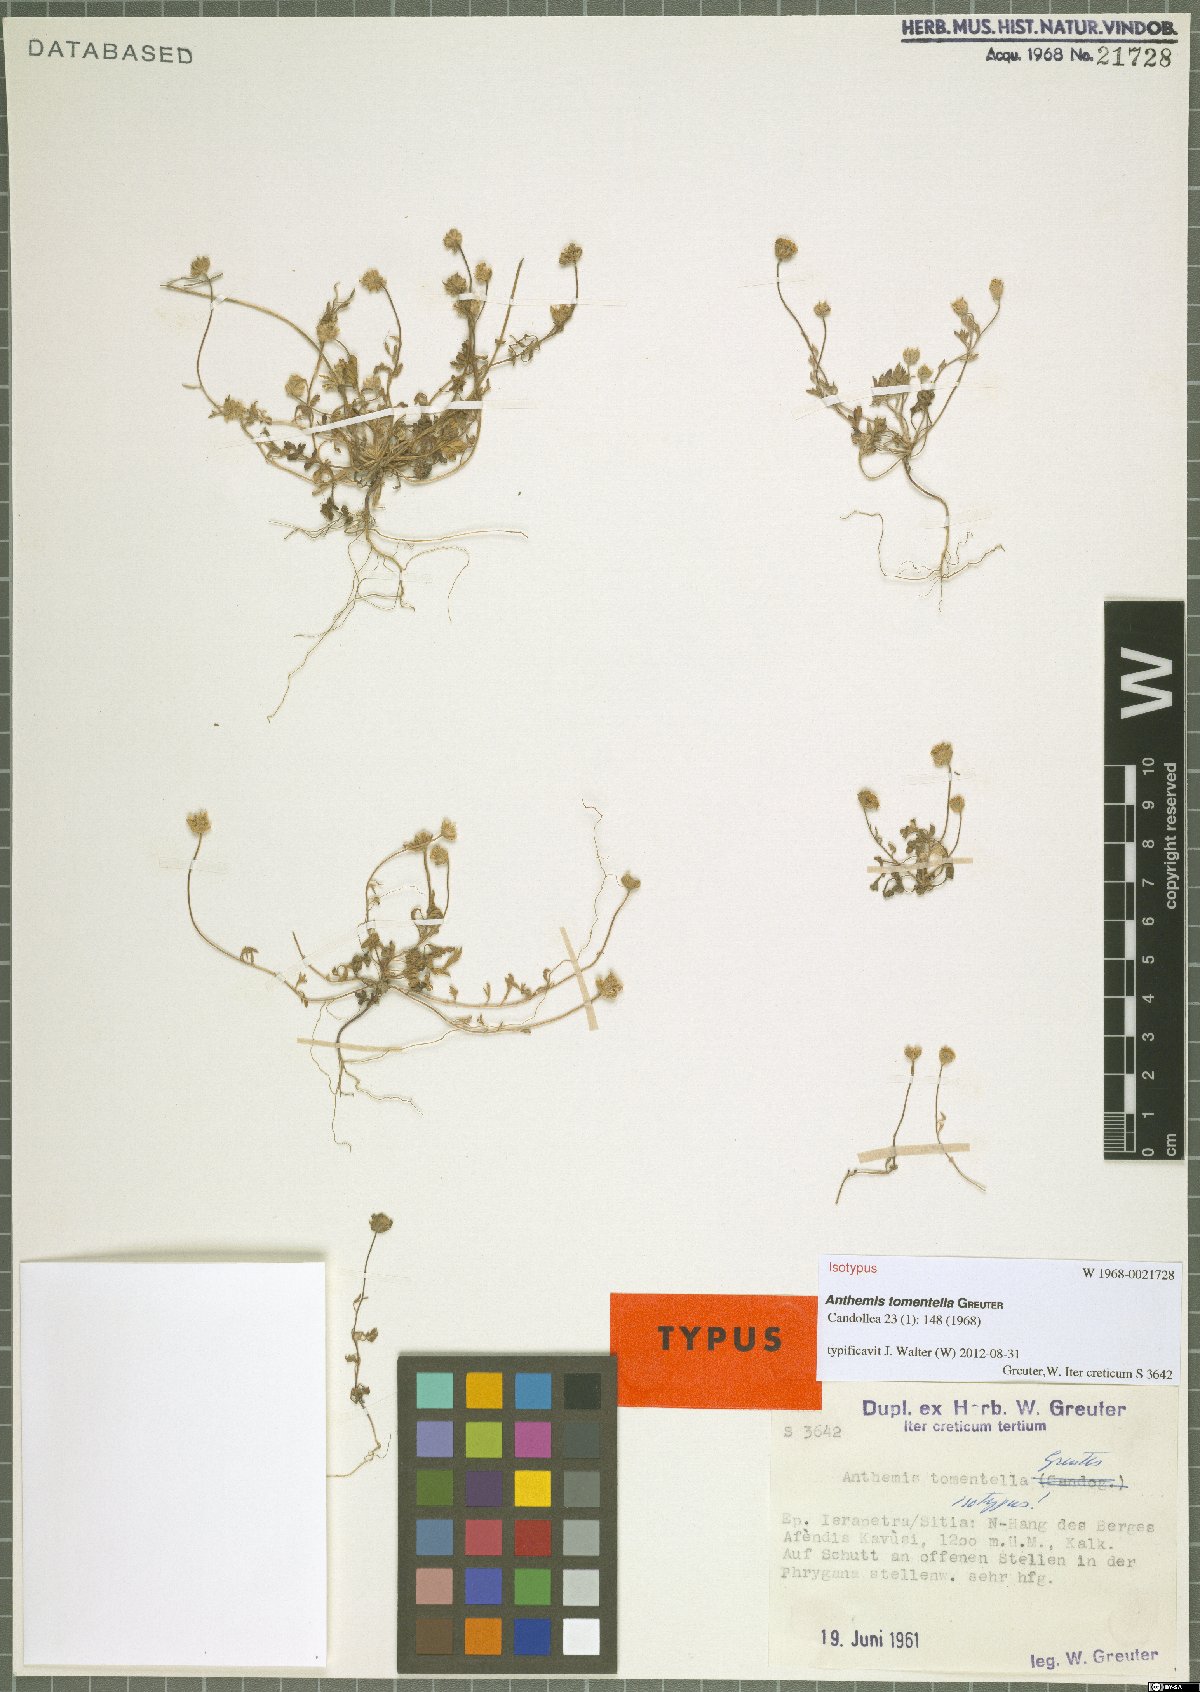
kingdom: Plantae
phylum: Tracheophyta
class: Magnoliopsida
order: Asterales
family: Asteraceae
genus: Anthemis
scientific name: Anthemis tomentella
